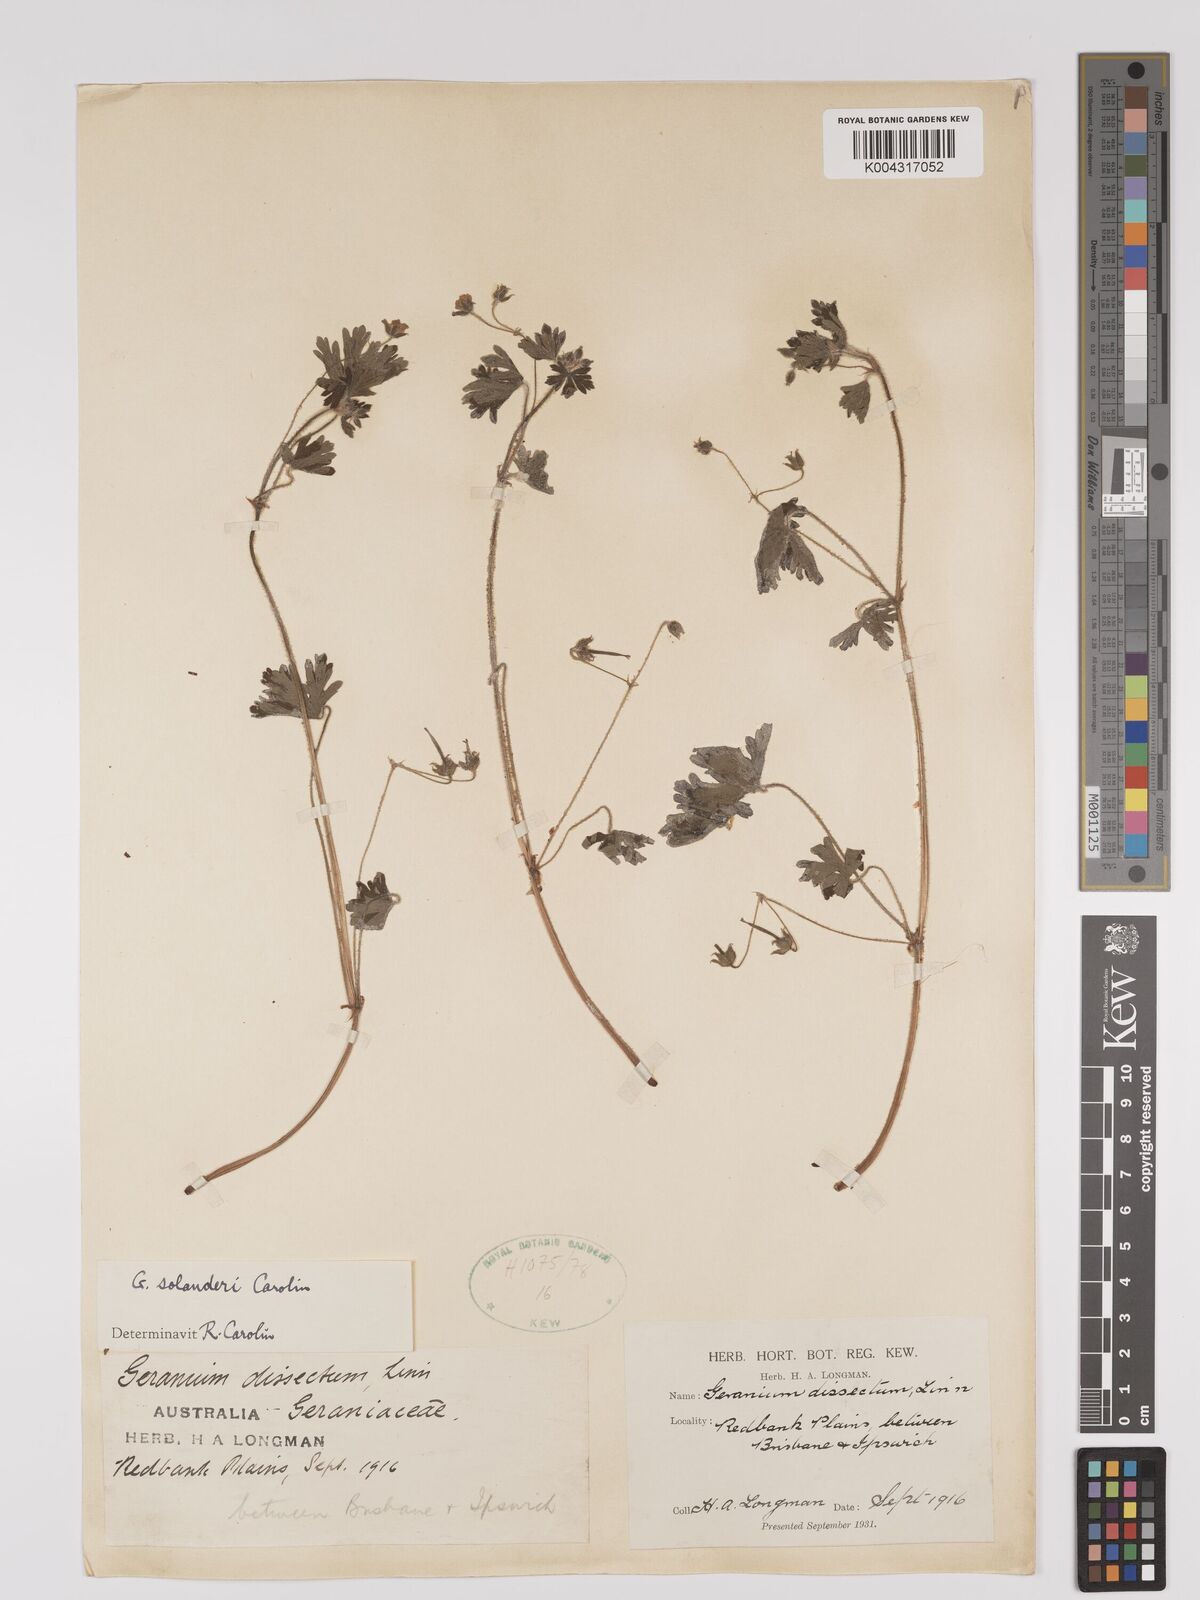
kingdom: Plantae
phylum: Tracheophyta
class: Magnoliopsida
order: Geraniales
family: Geraniaceae
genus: Geranium
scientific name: Geranium solanderi
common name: Solander's geranium
